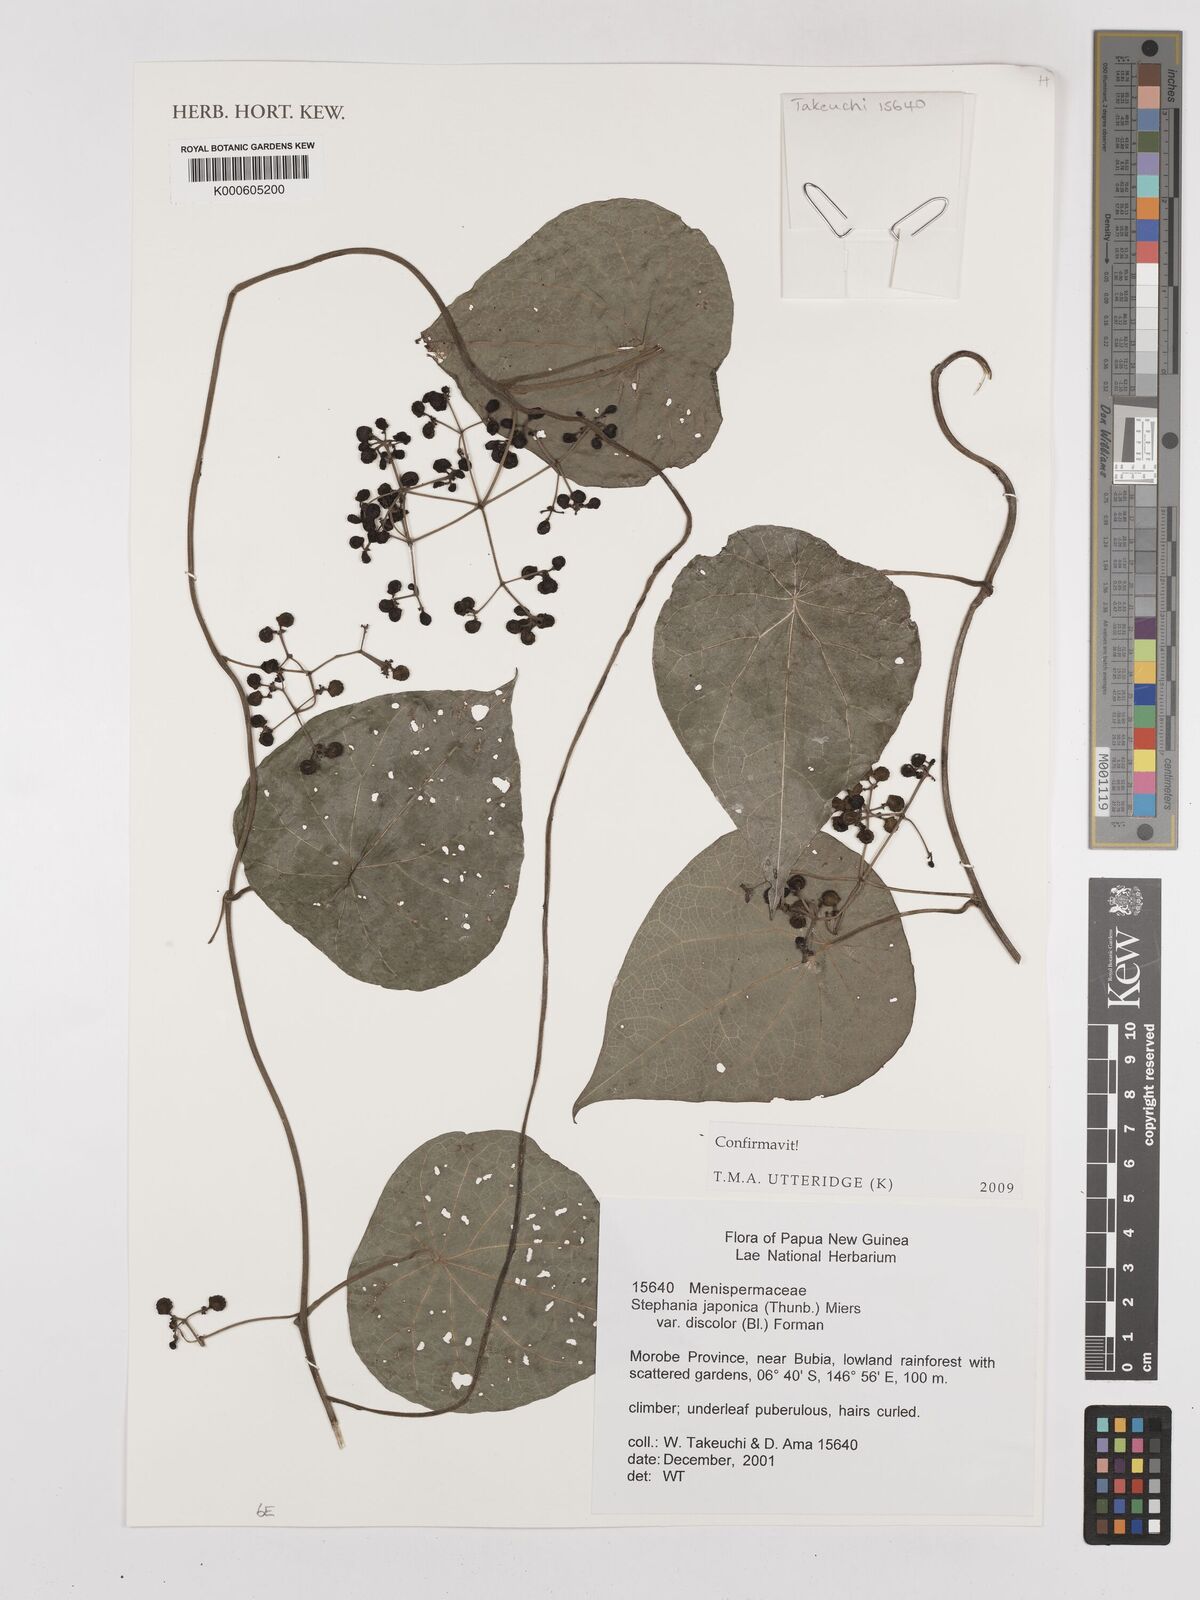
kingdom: Plantae
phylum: Tracheophyta
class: Magnoliopsida
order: Ranunculales
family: Menispermaceae
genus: Stephania
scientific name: Stephania japonica
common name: Snake vine
